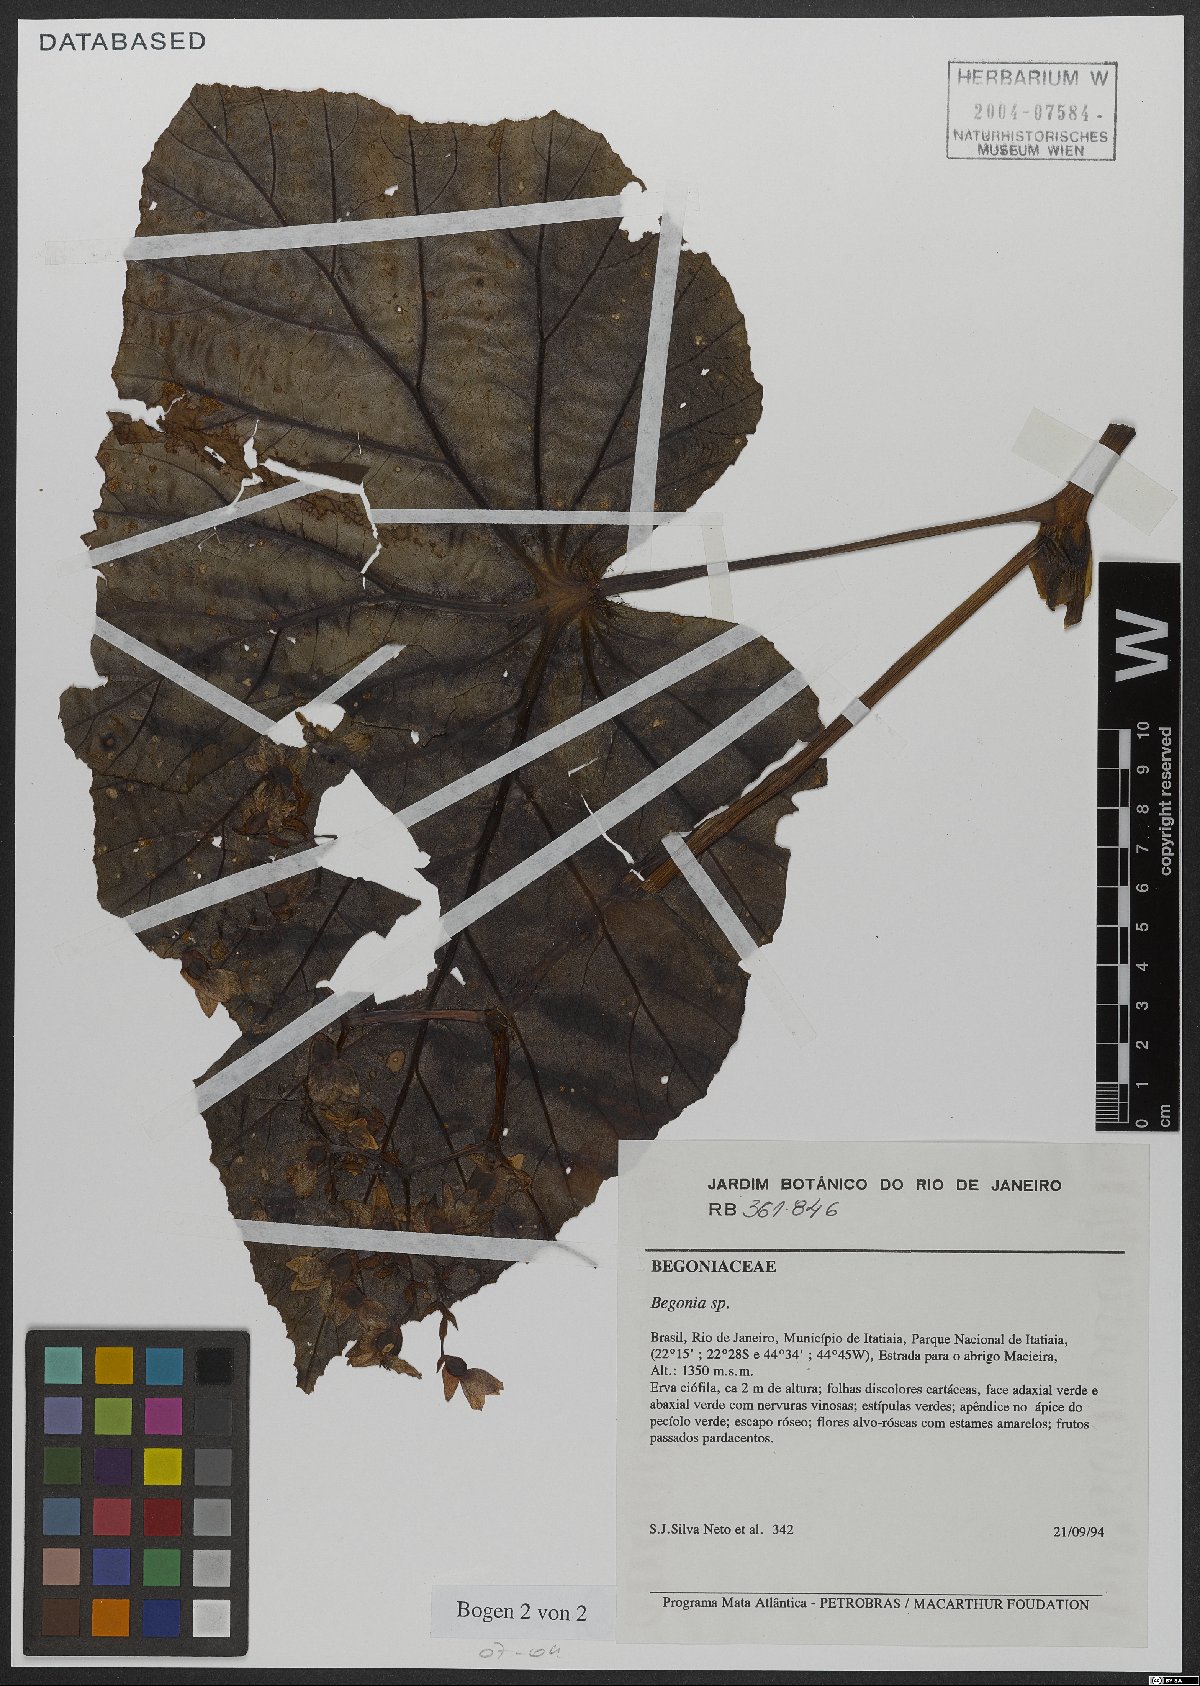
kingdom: Plantae
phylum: Tracheophyta
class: Magnoliopsida
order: Cucurbitales
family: Begoniaceae
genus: Begonia
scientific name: Begonia
